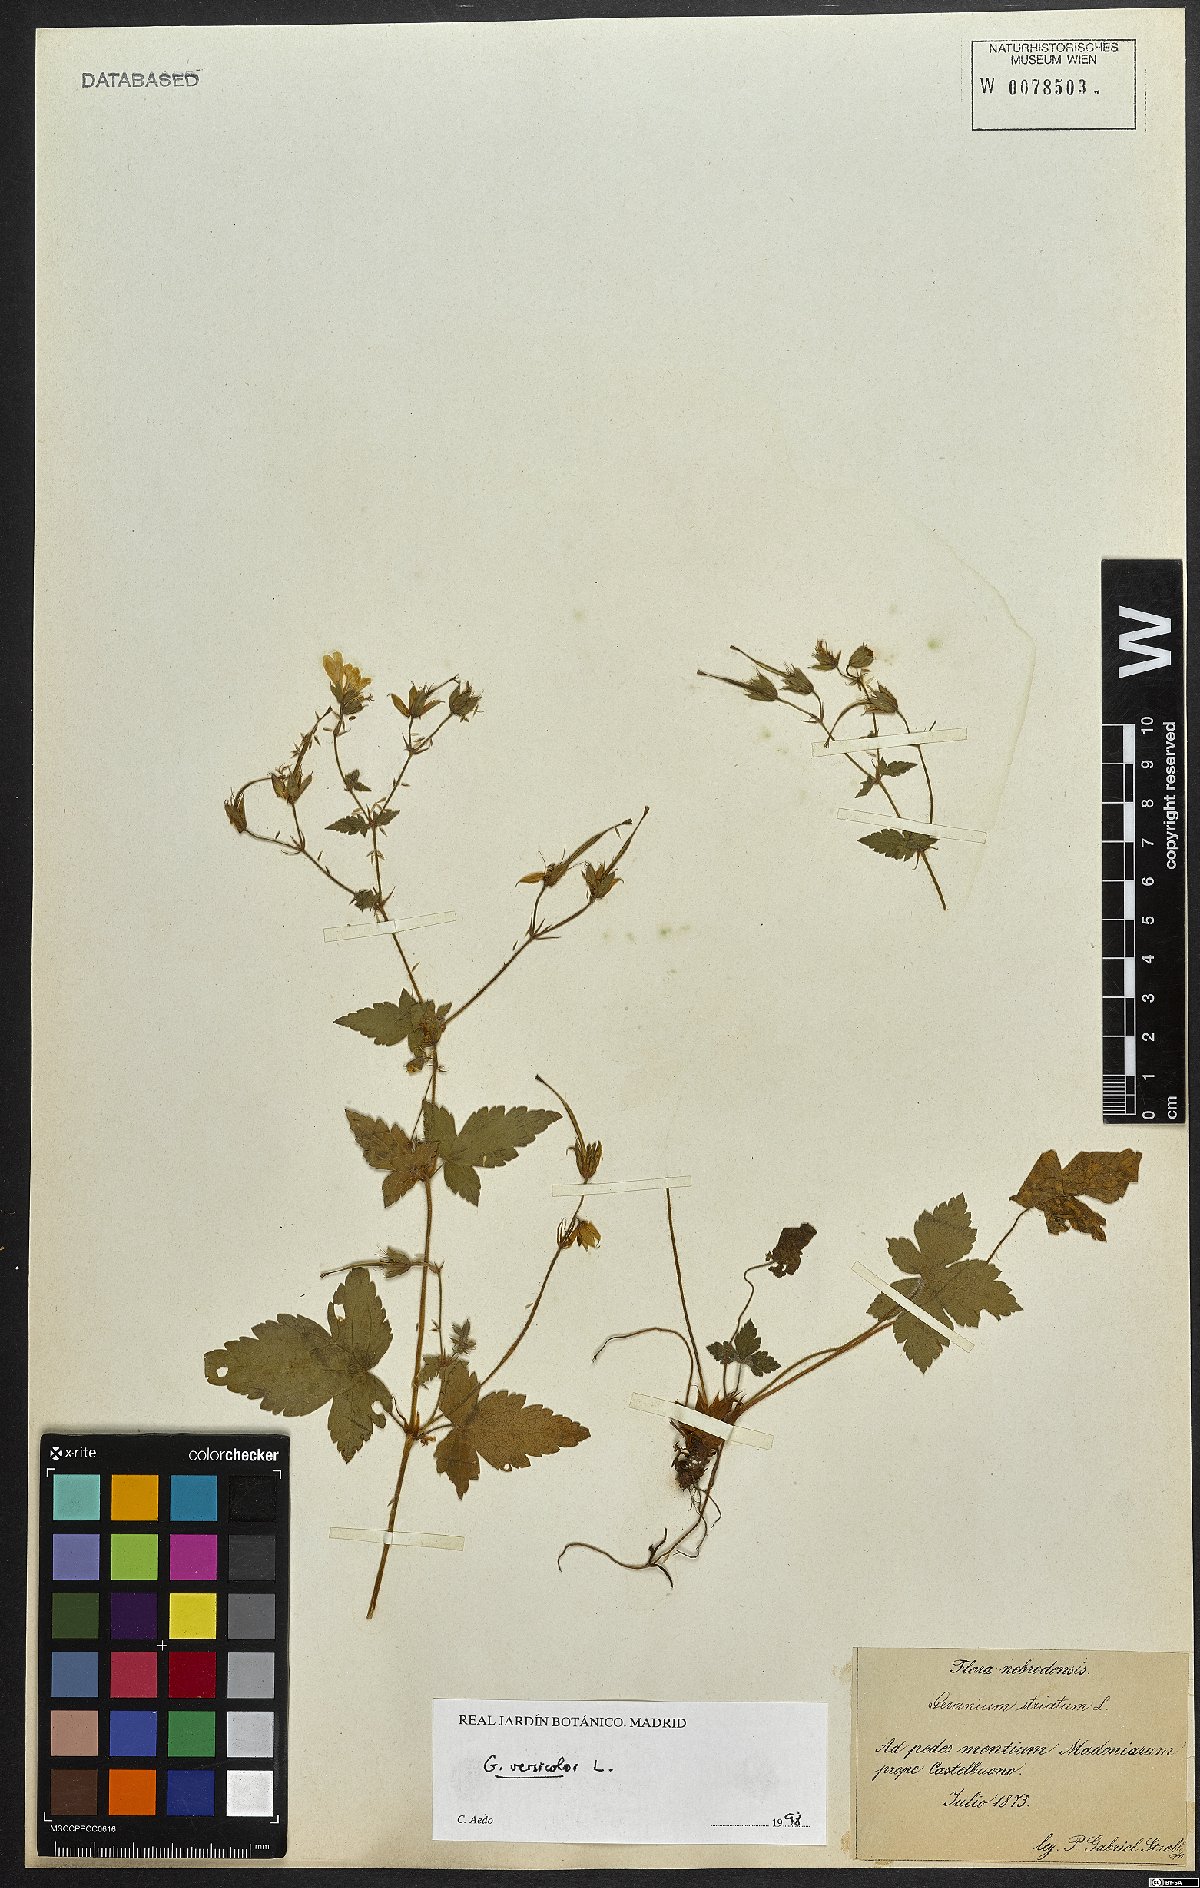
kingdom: Plantae
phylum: Tracheophyta
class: Magnoliopsida
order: Geraniales
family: Geraniaceae
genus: Geranium
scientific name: Geranium versicolor
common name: Pencilled crane's-bill
